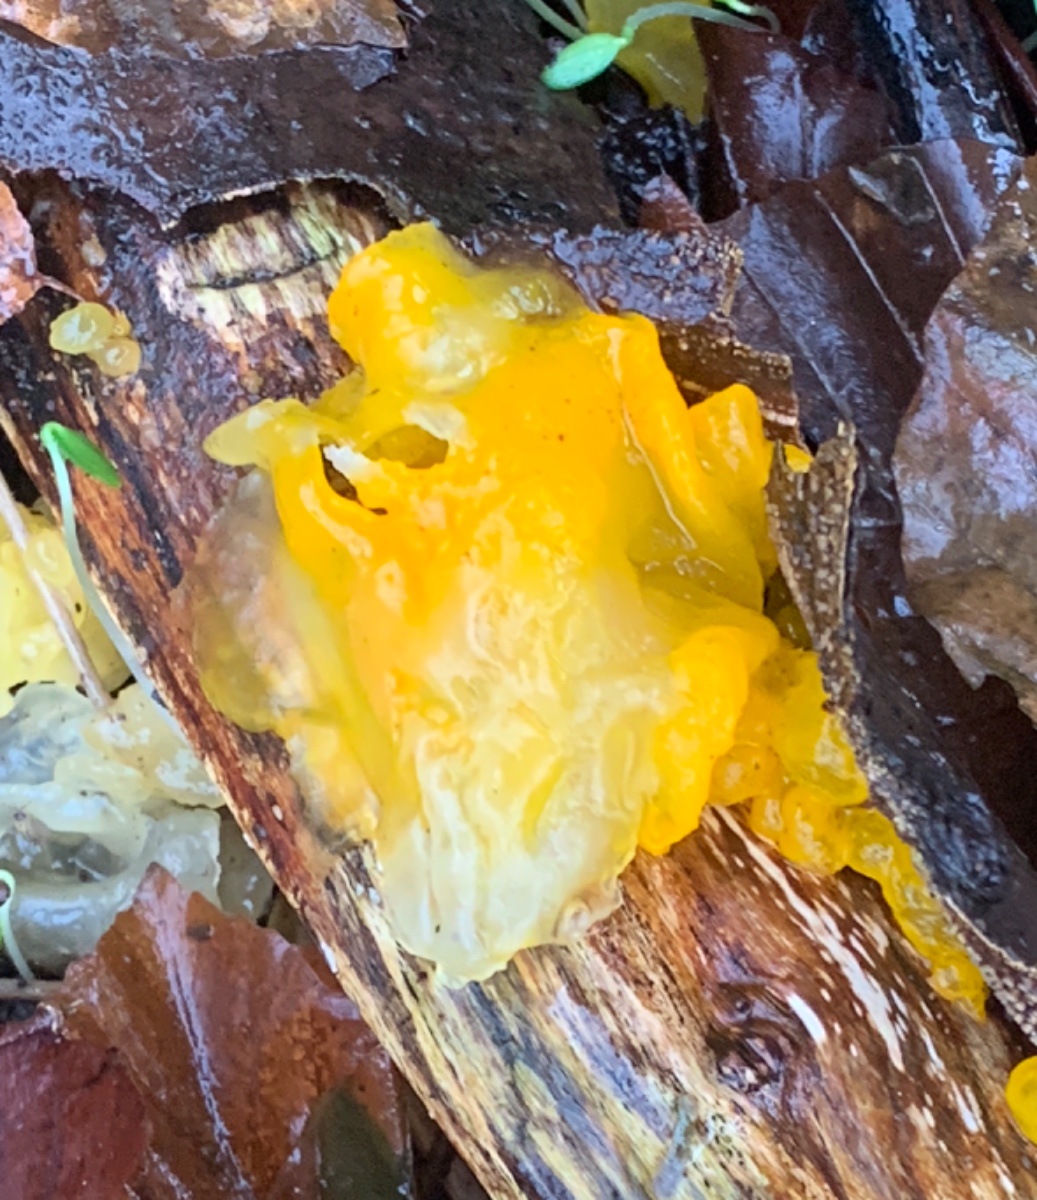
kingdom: Fungi
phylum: Basidiomycota
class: Tremellomycetes
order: Tremellales
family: Tremellaceae
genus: Tremella
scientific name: Tremella mesenterica
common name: gul bævresvamp
